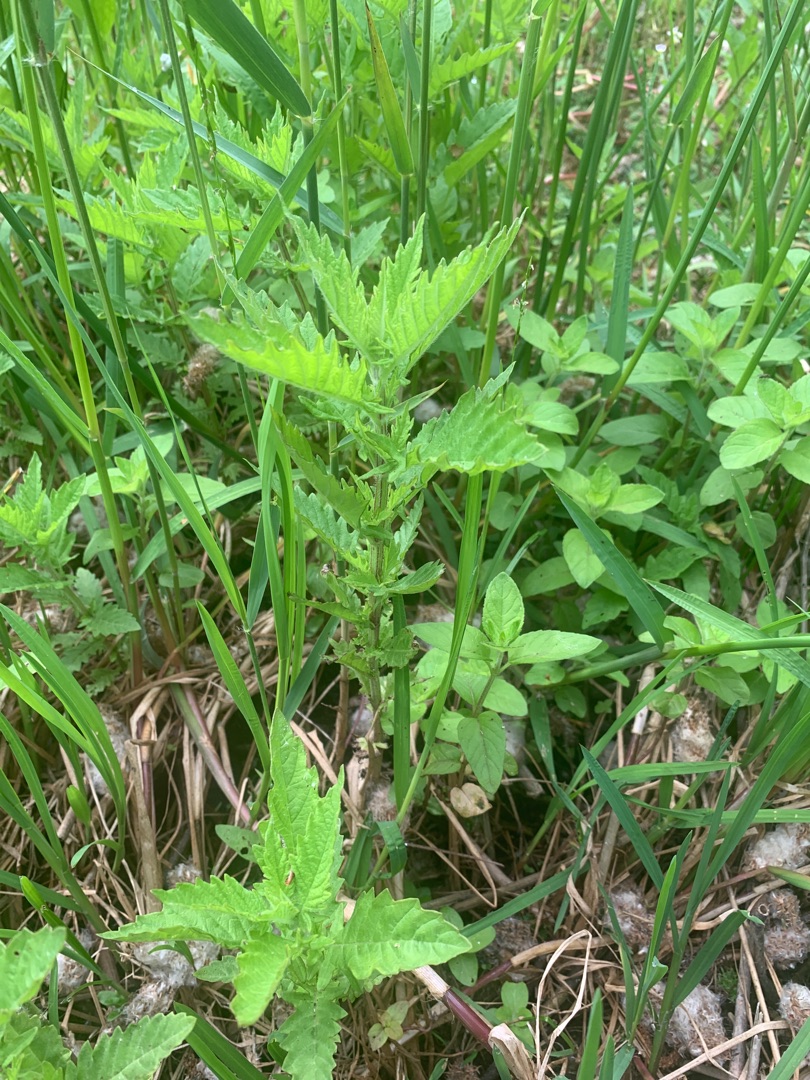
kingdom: Plantae
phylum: Tracheophyta
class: Magnoliopsida
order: Lamiales
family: Lamiaceae
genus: Lycopus
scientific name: Lycopus europaeus
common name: Sværtevæld
